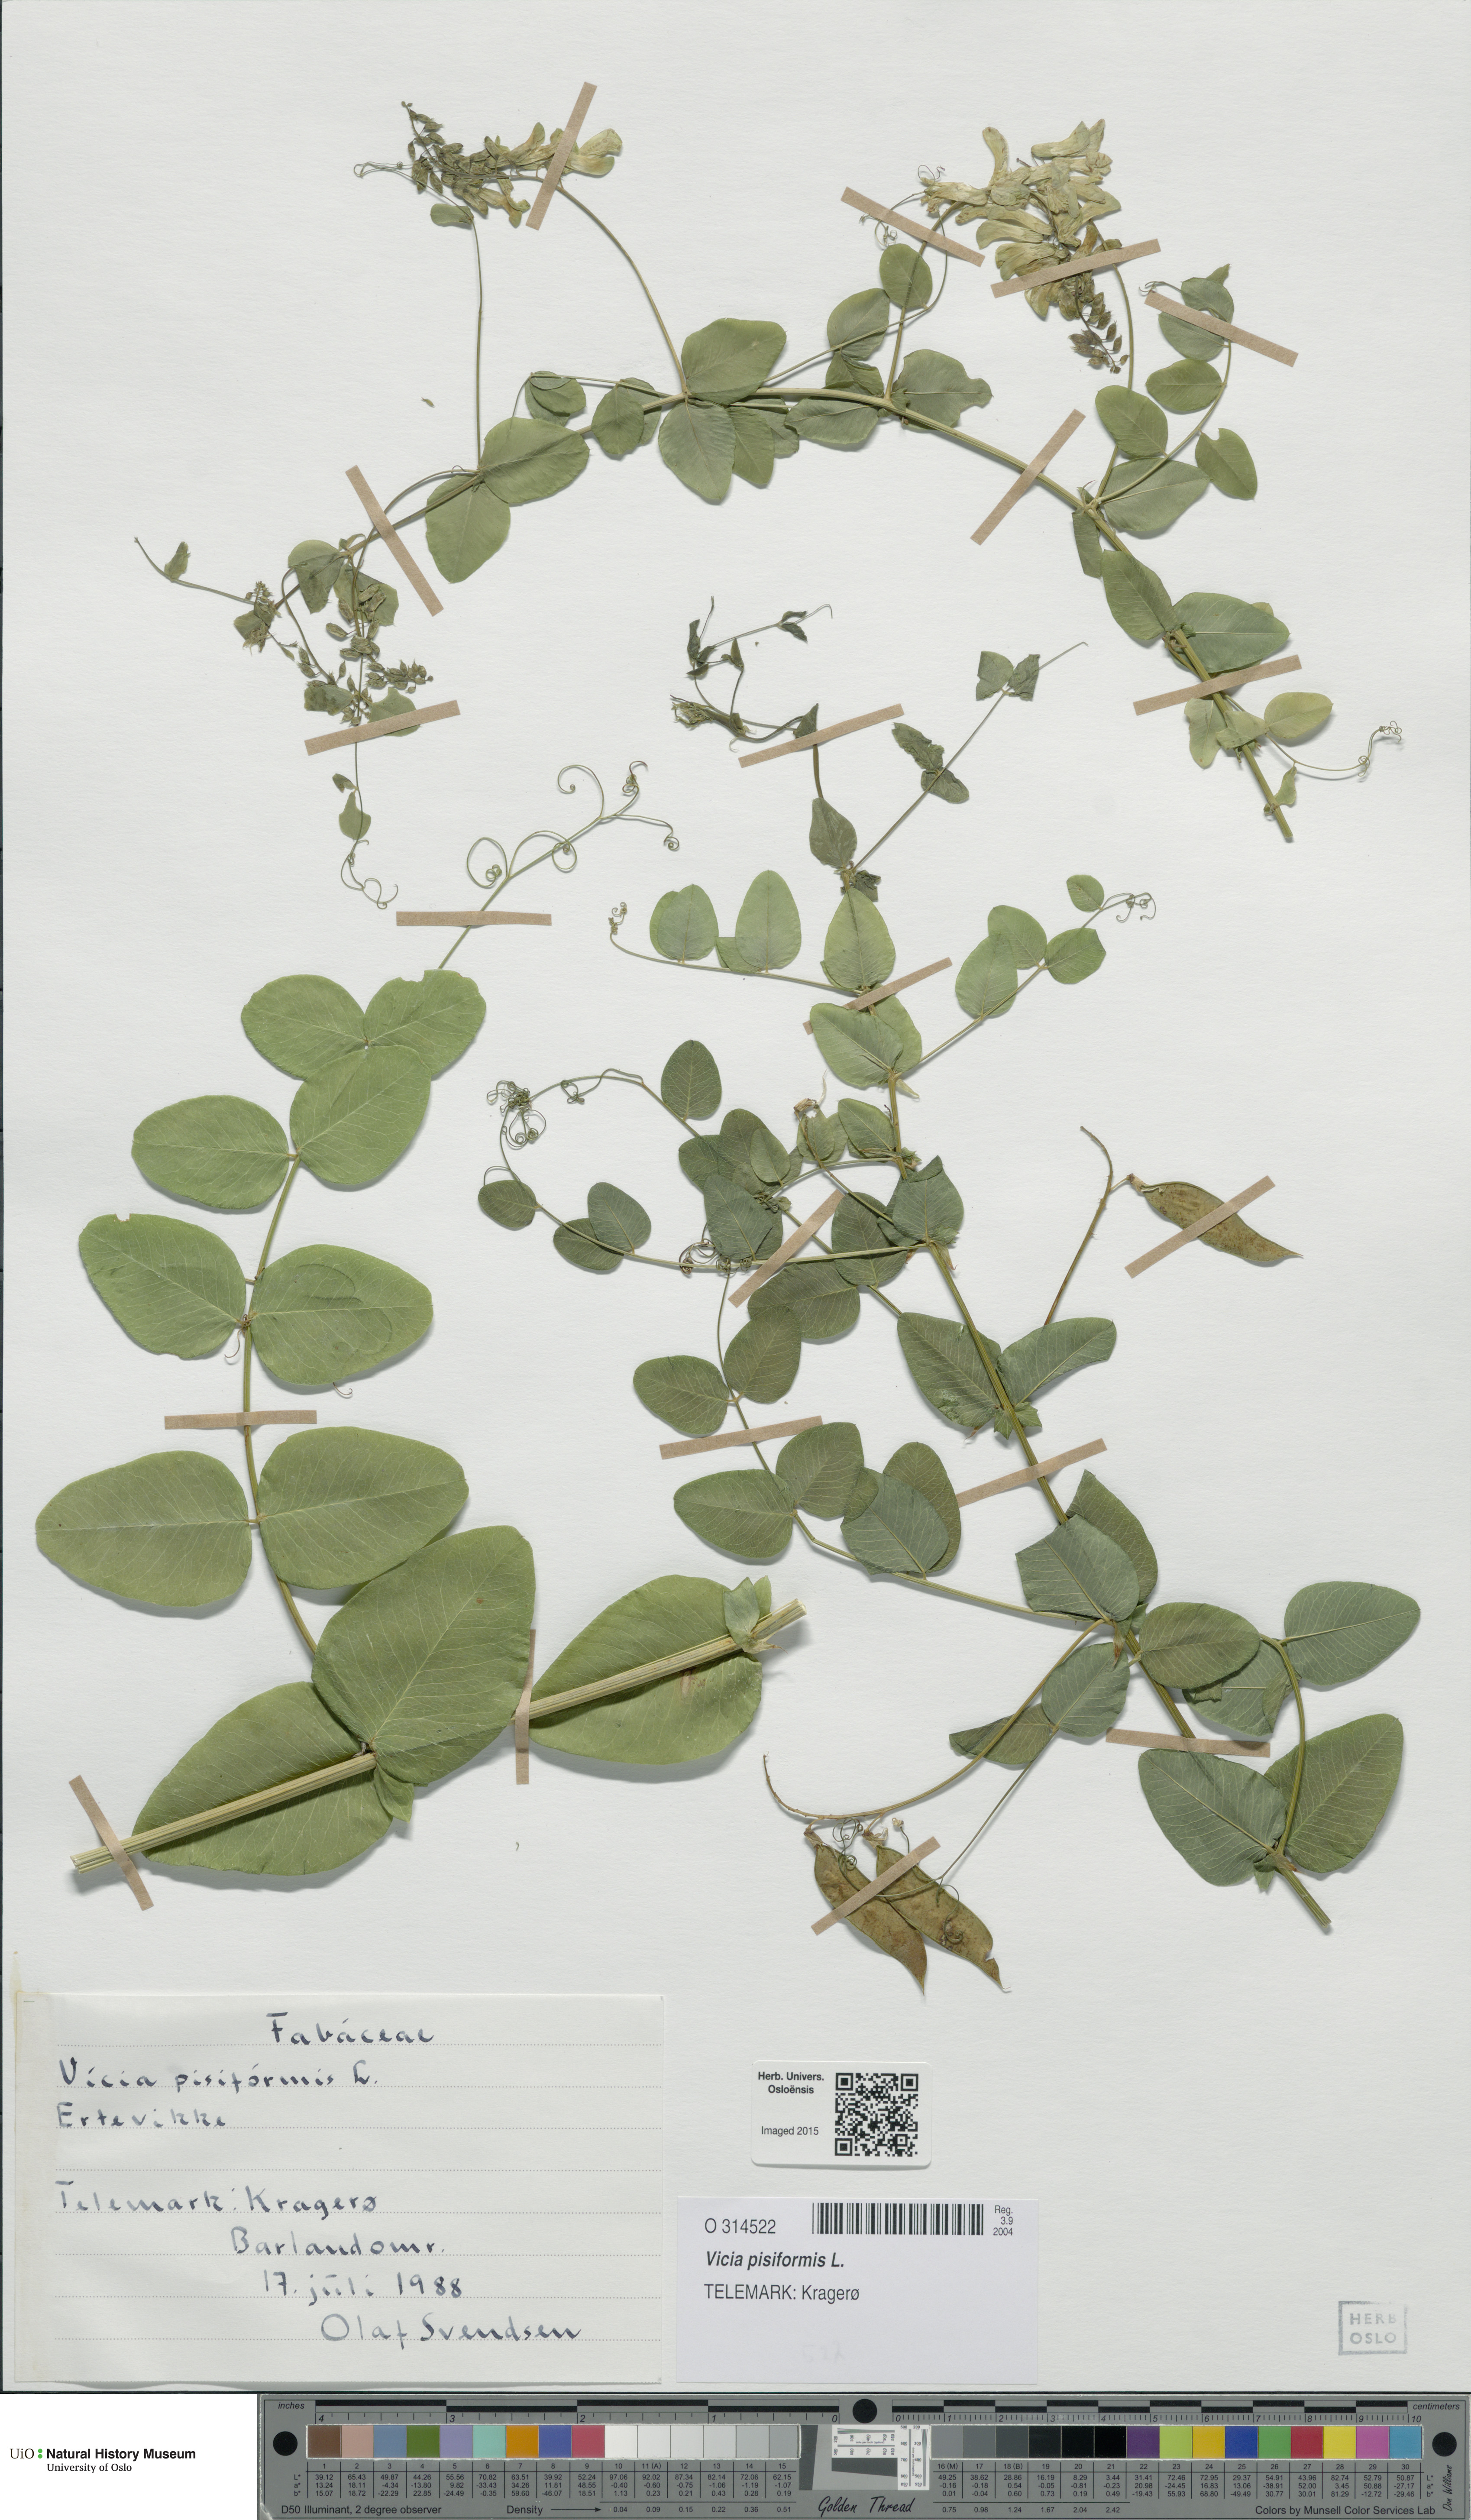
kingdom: Plantae
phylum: Tracheophyta
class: Magnoliopsida
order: Fabales
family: Fabaceae
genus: Vicia
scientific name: Vicia pisiformis
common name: Pale-flower vetch
